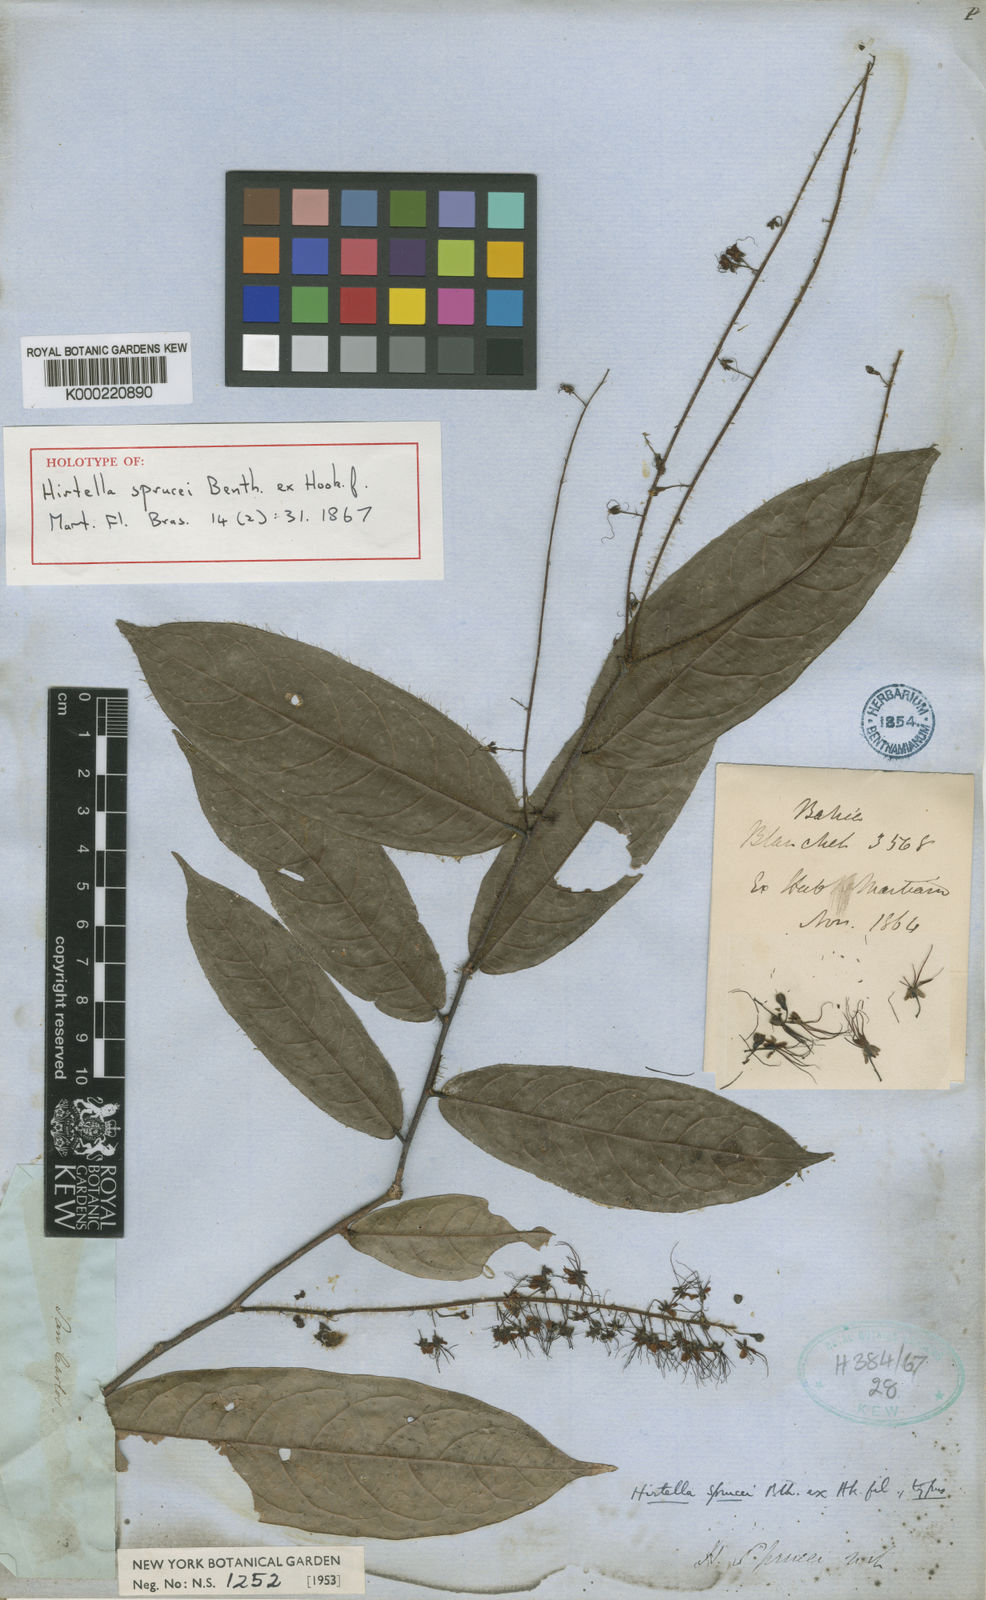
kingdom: Plantae
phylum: Tracheophyta
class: Magnoliopsida
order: Malpighiales
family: Chrysobalanaceae
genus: Hirtella
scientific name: Hirtella sprucei
